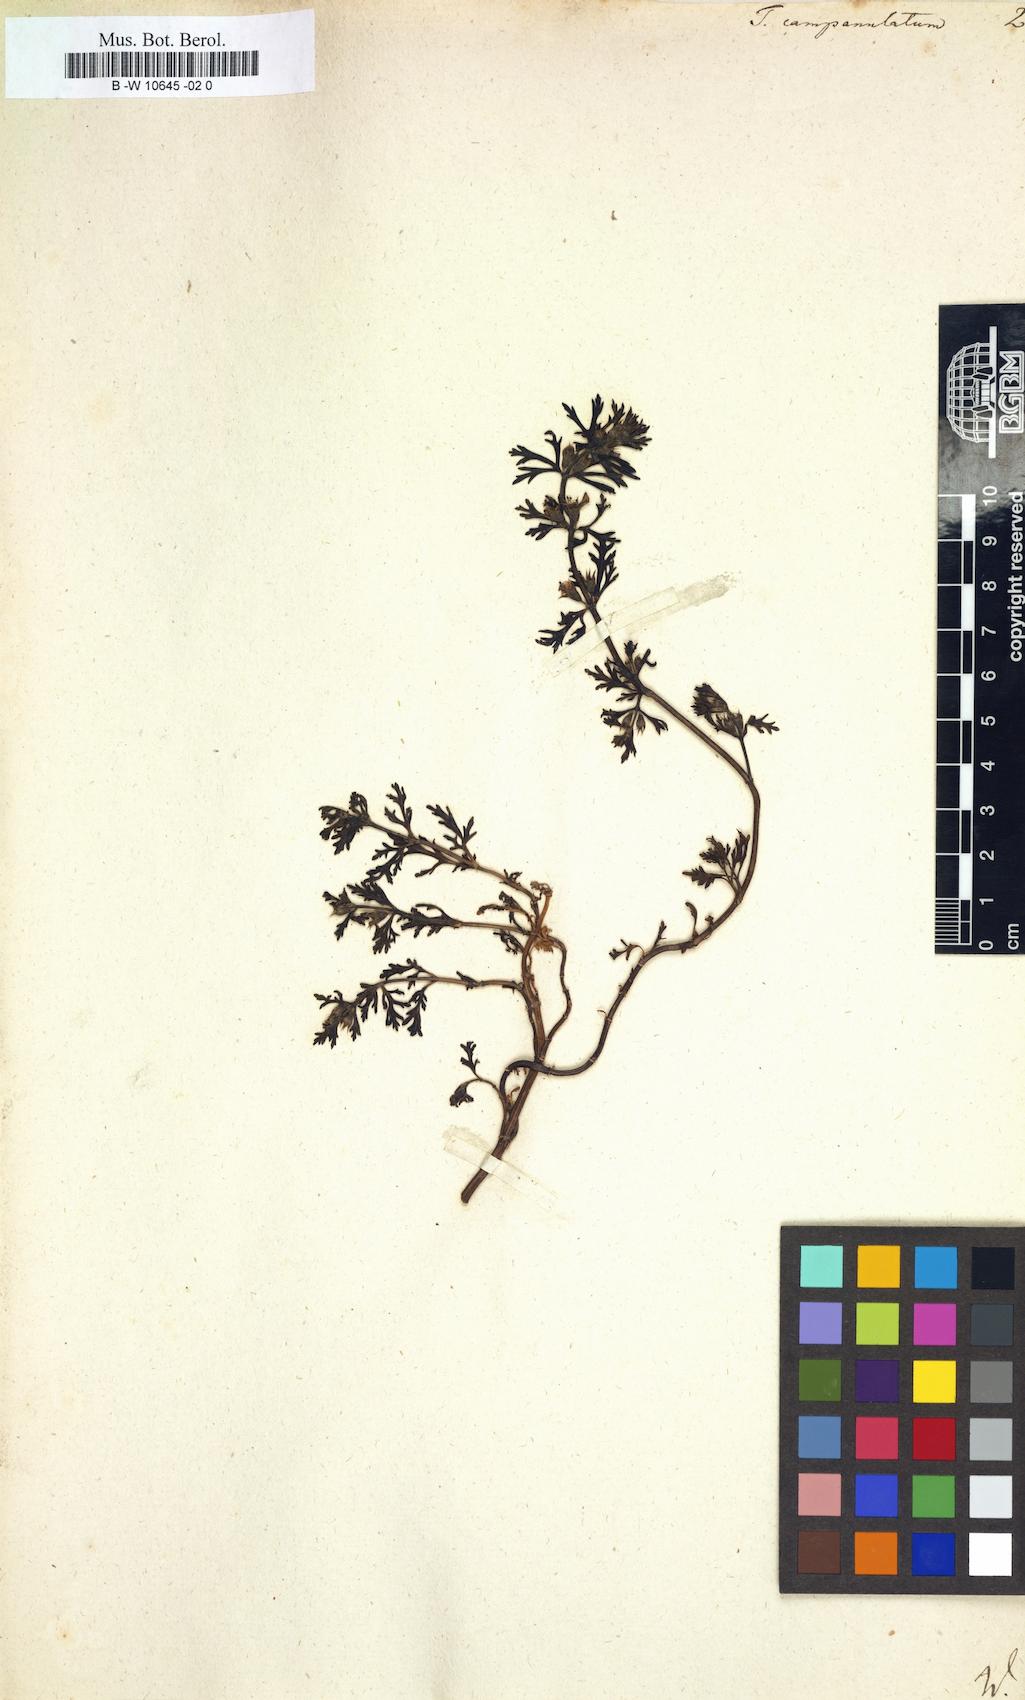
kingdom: Plantae
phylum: Tracheophyta
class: Magnoliopsida
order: Lamiales
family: Lamiaceae
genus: Teucrium
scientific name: Teucrium campanulatum
